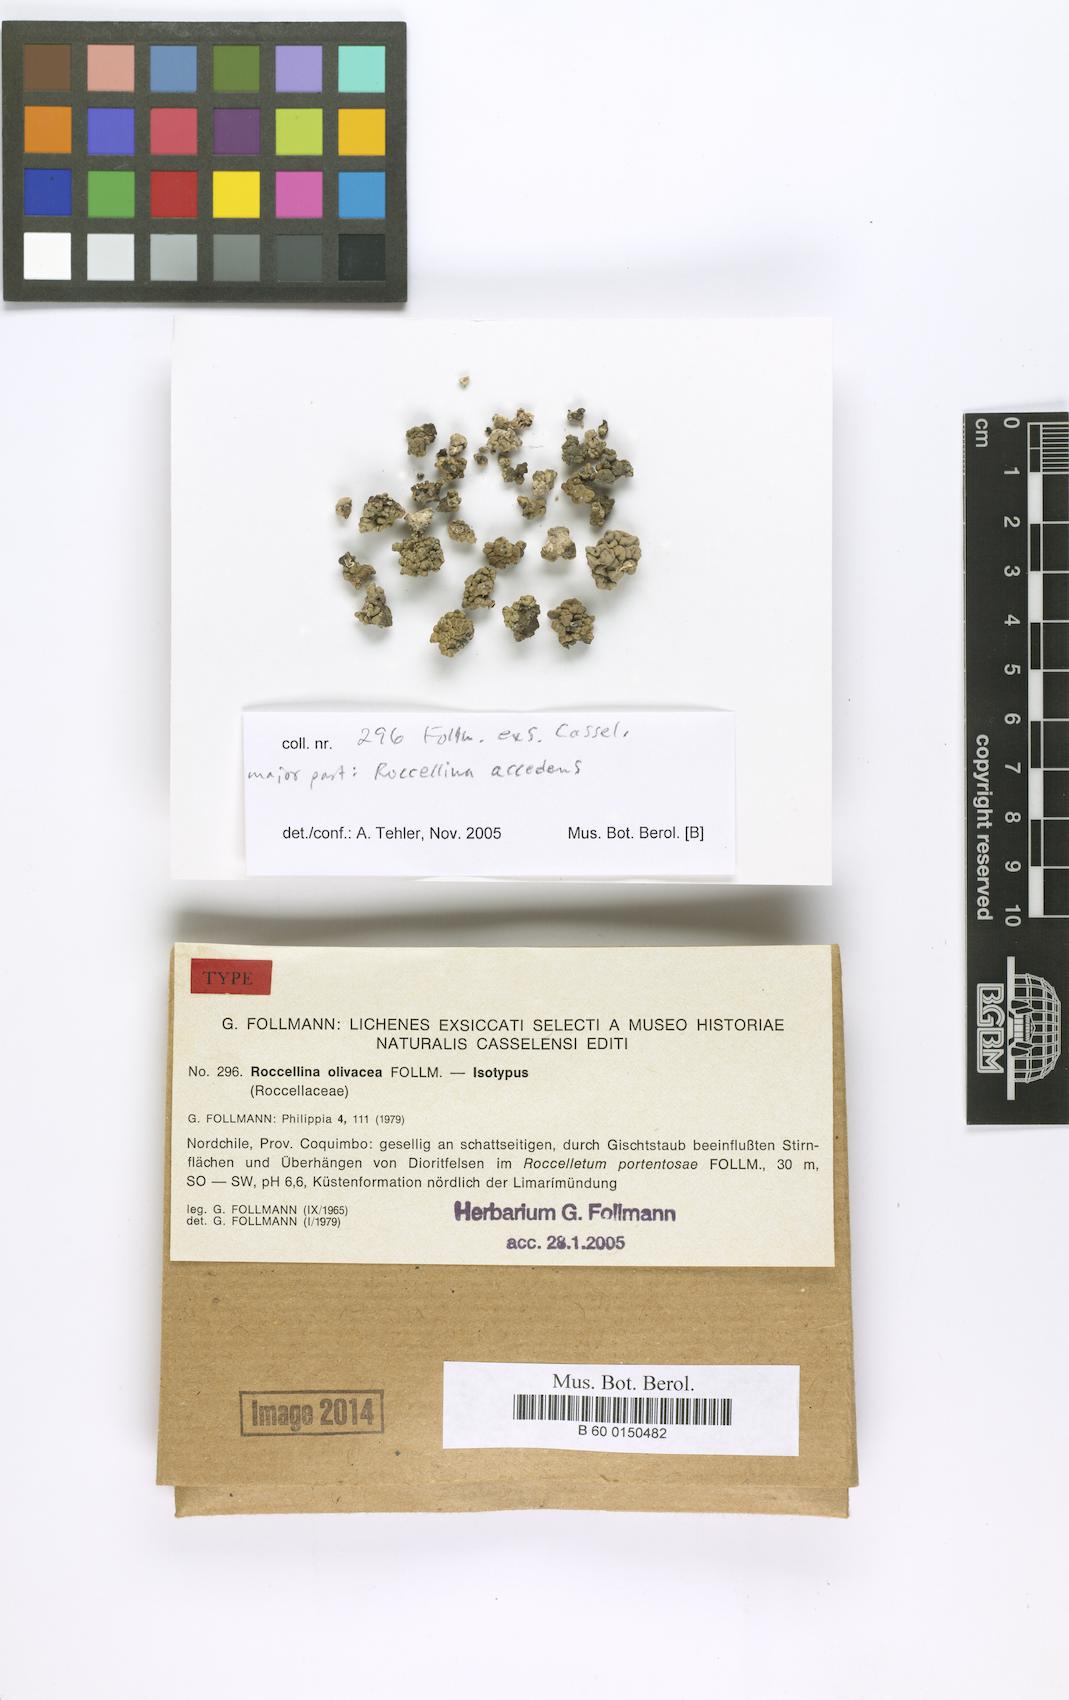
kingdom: Fungi
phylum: Ascomycota
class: Arthoniomycetes
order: Arthoniales
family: Roccellaceae
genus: Roccellina
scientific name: Roccellina accedens
